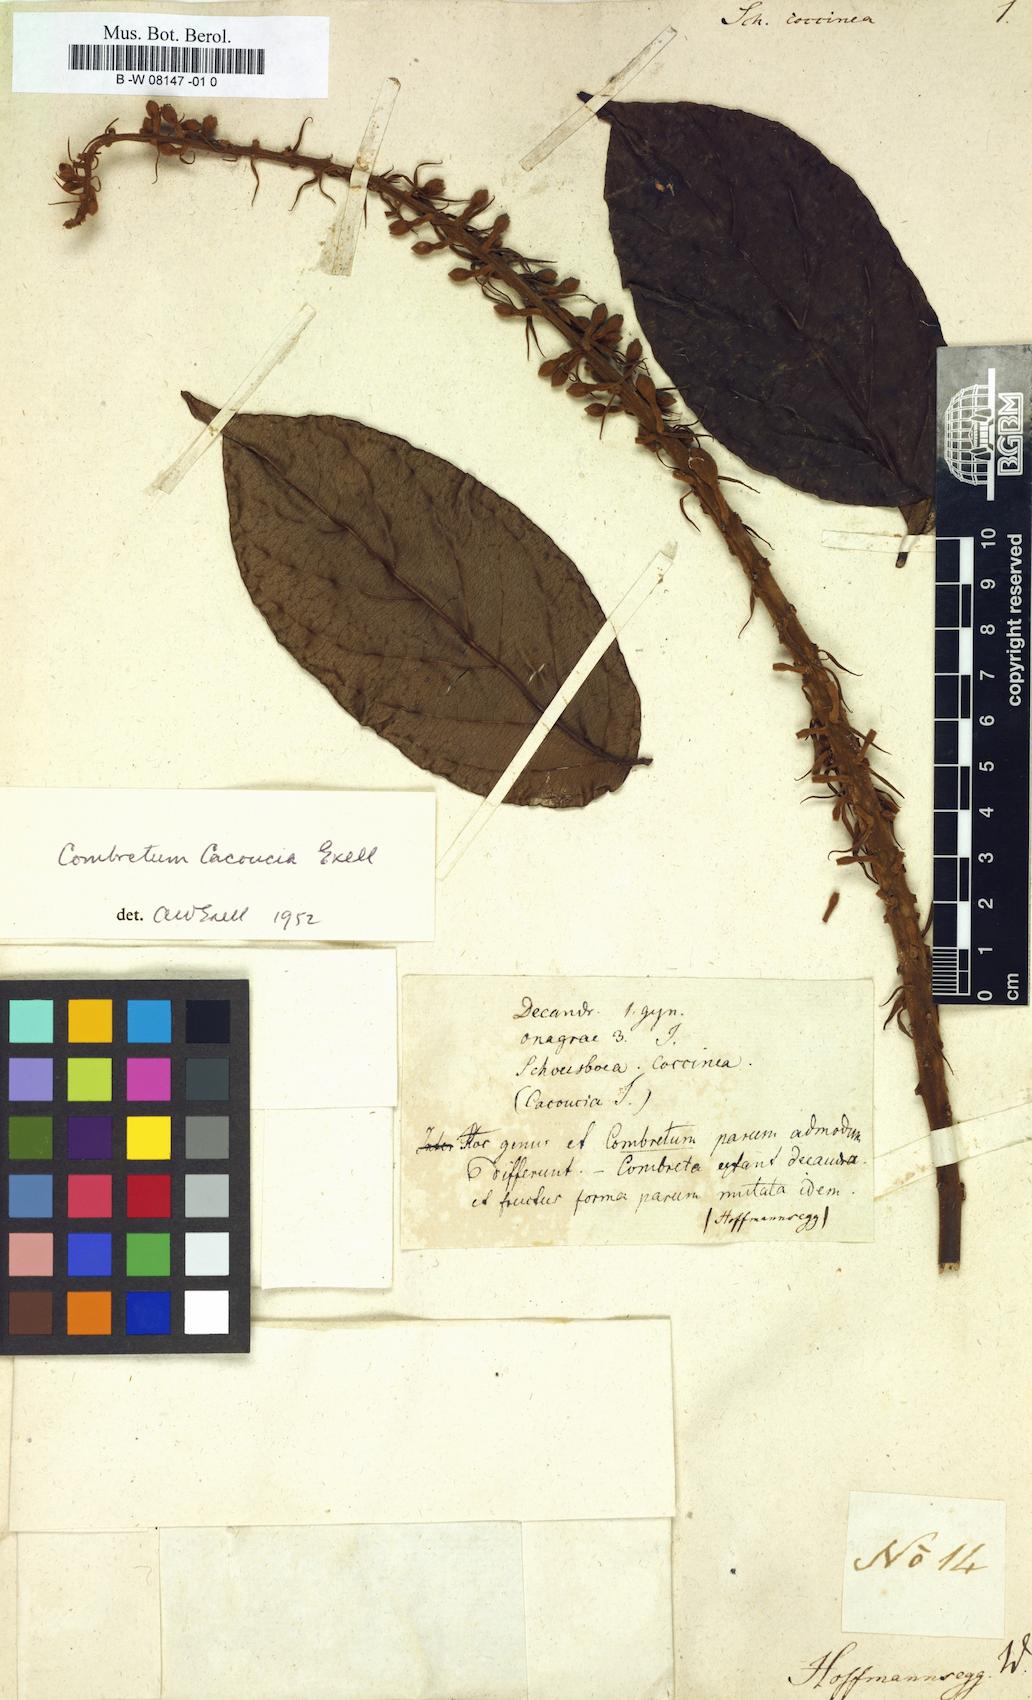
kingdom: Plantae
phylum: Tracheophyta
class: Magnoliopsida
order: Myrtales
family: Combretaceae
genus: Combretum
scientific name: Combretum cacoucia
